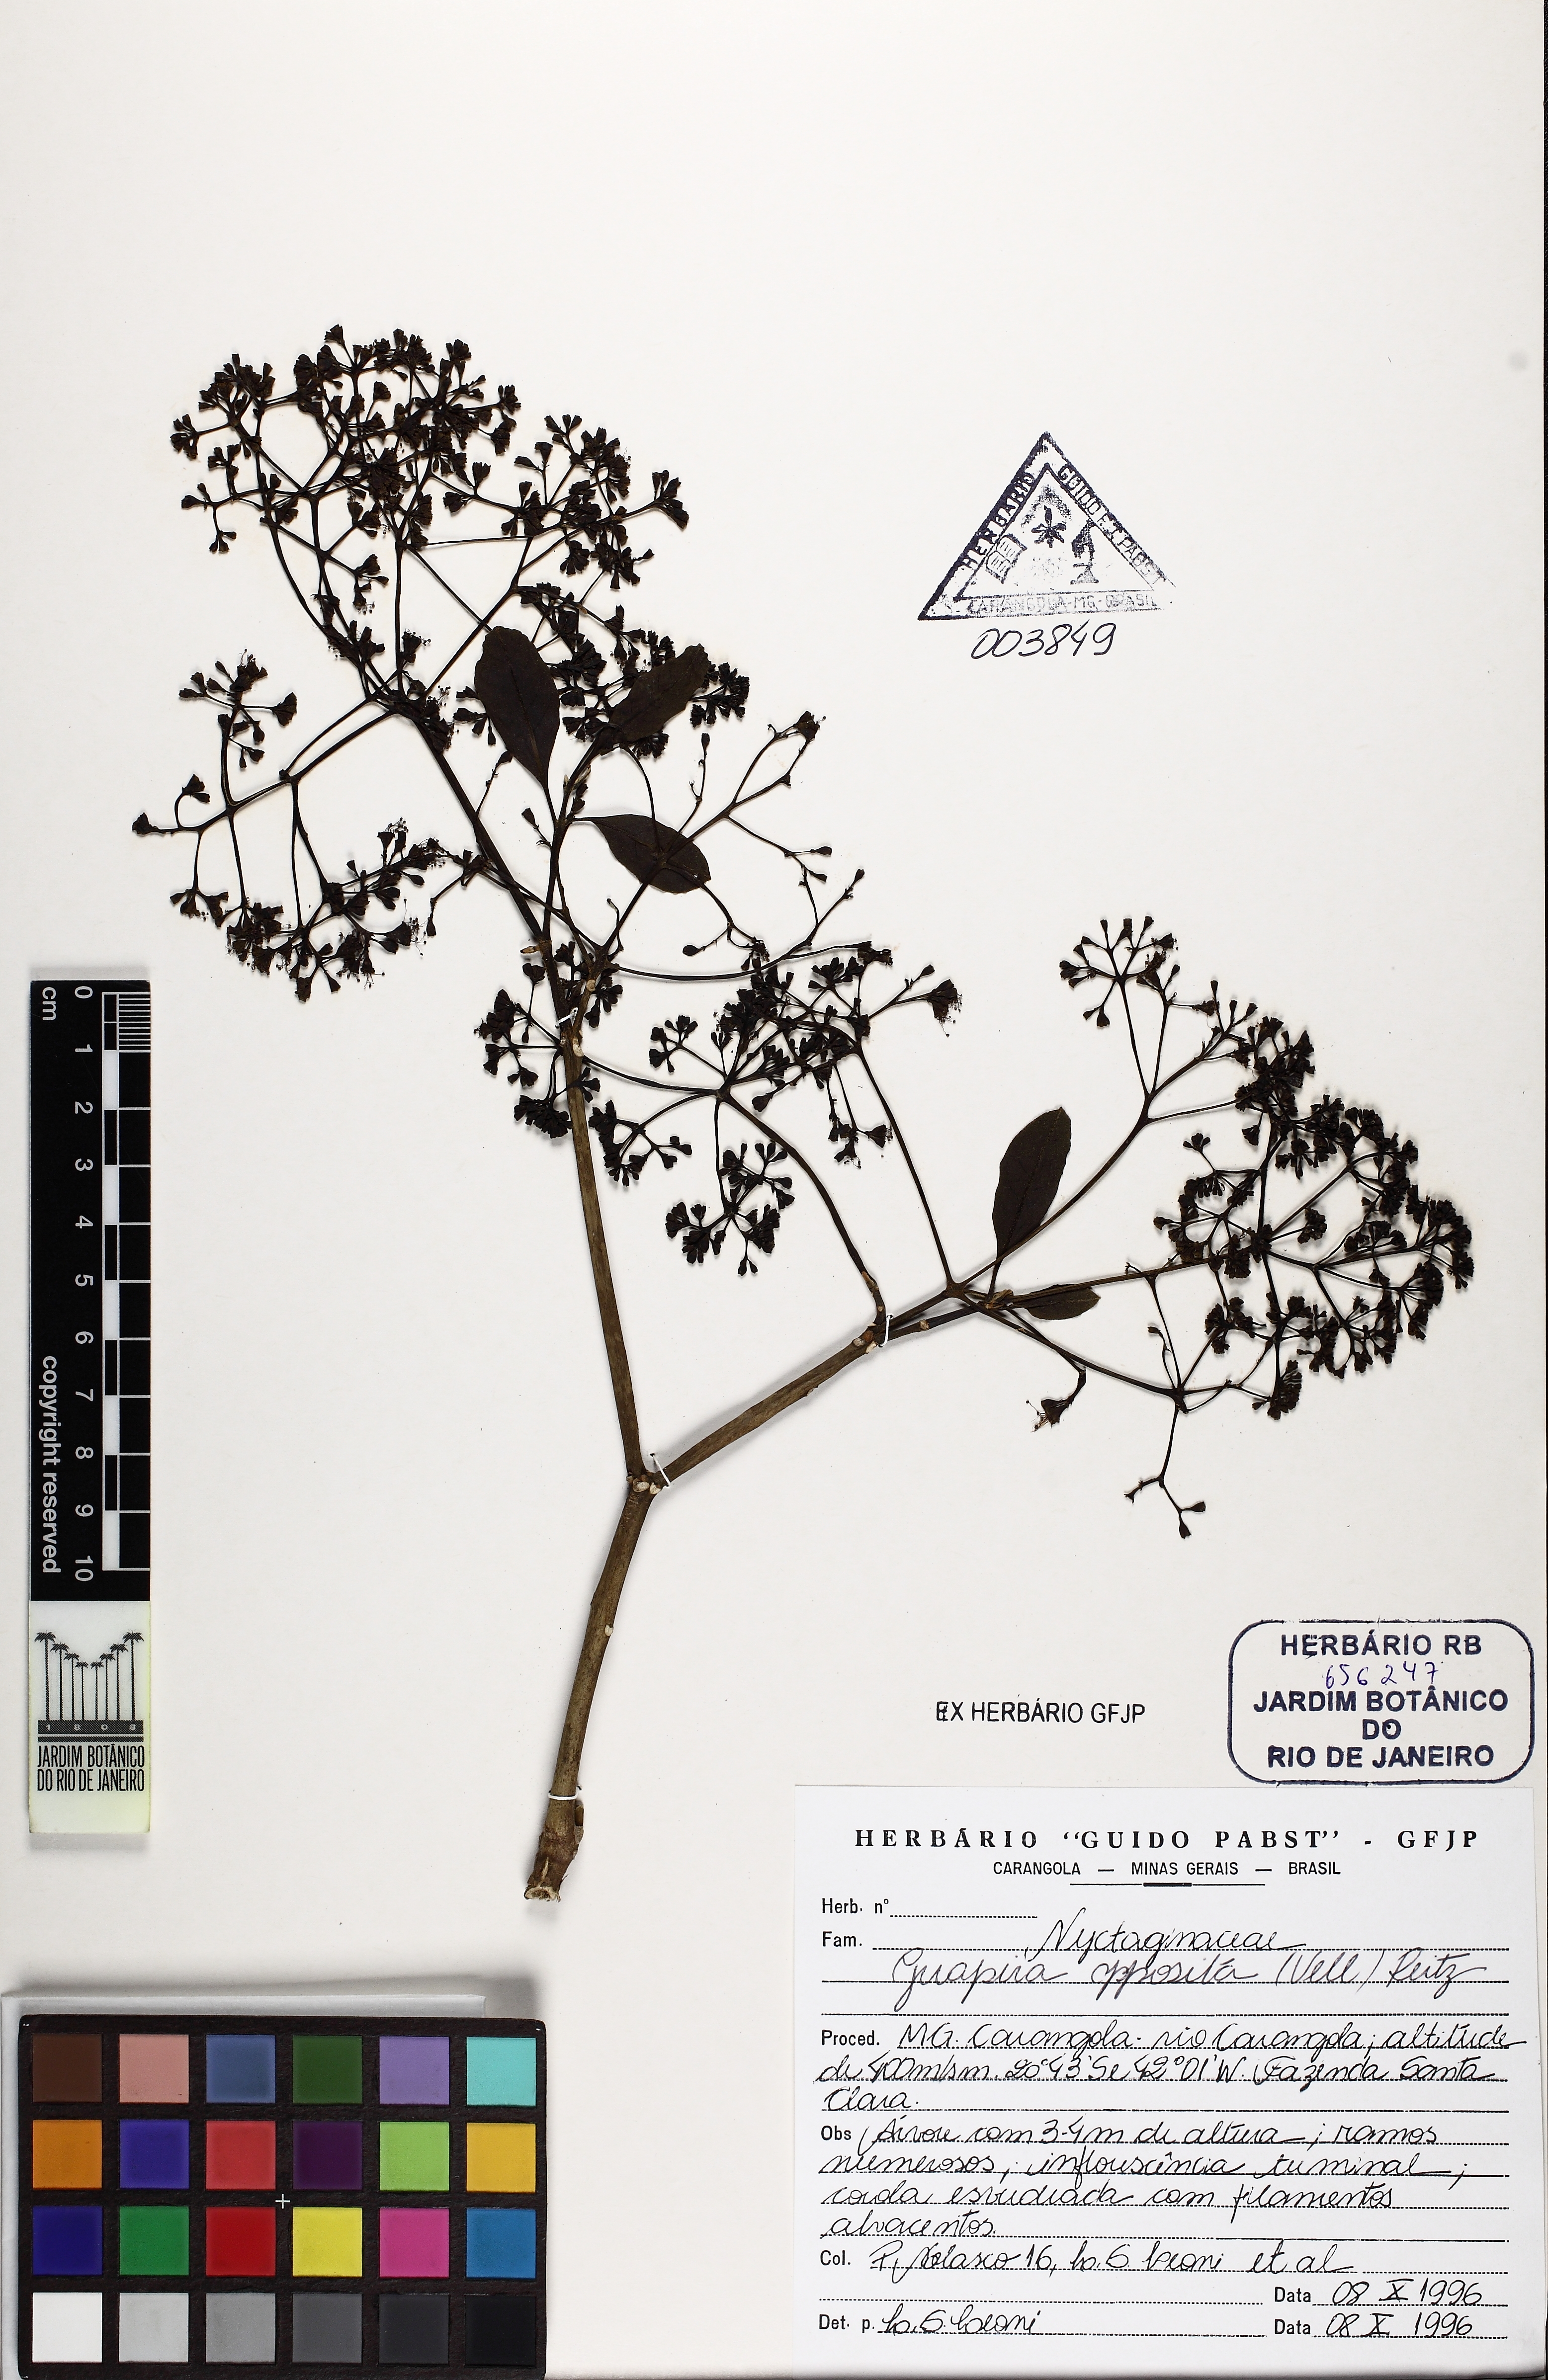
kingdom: Plantae
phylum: Tracheophyta
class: Magnoliopsida
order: Caryophyllales
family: Nyctaginaceae
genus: Guapira
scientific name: Guapira opposita
